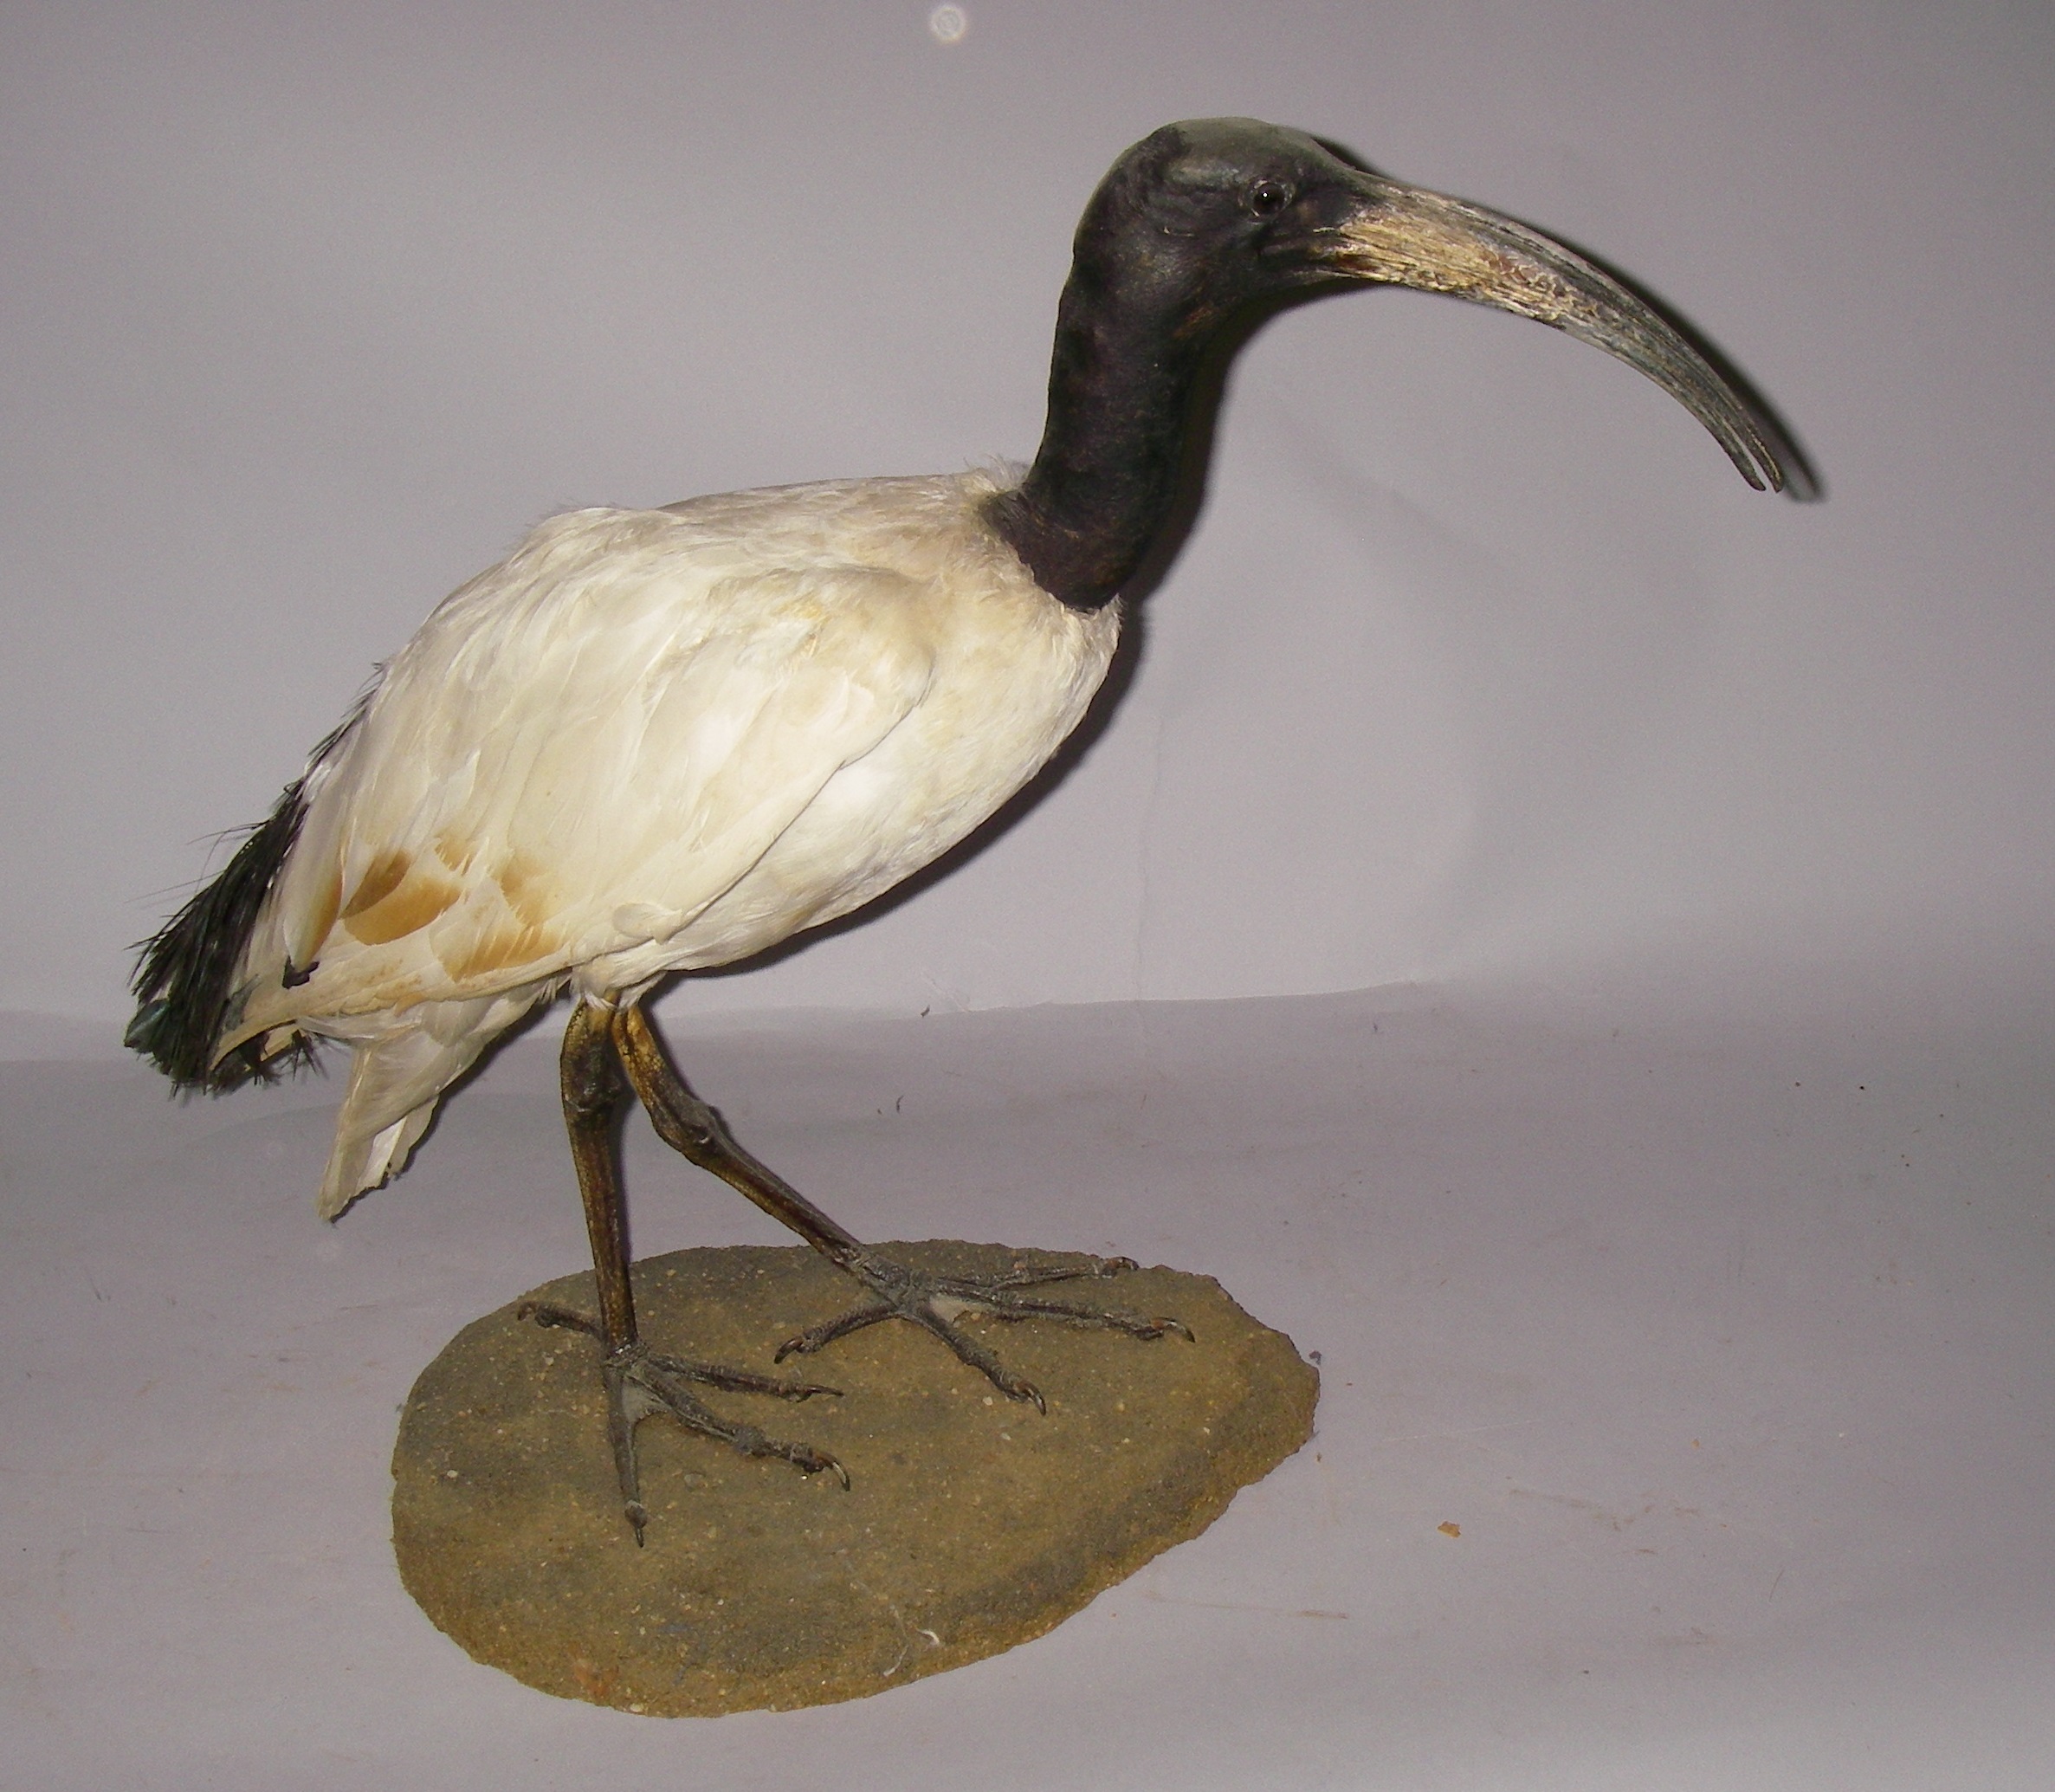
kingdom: Animalia
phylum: Chordata
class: Aves
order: Pelecaniformes
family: Threskiornithidae
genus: Threskiornis
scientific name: Threskiornis aethiopicus
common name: Sacred ibis
